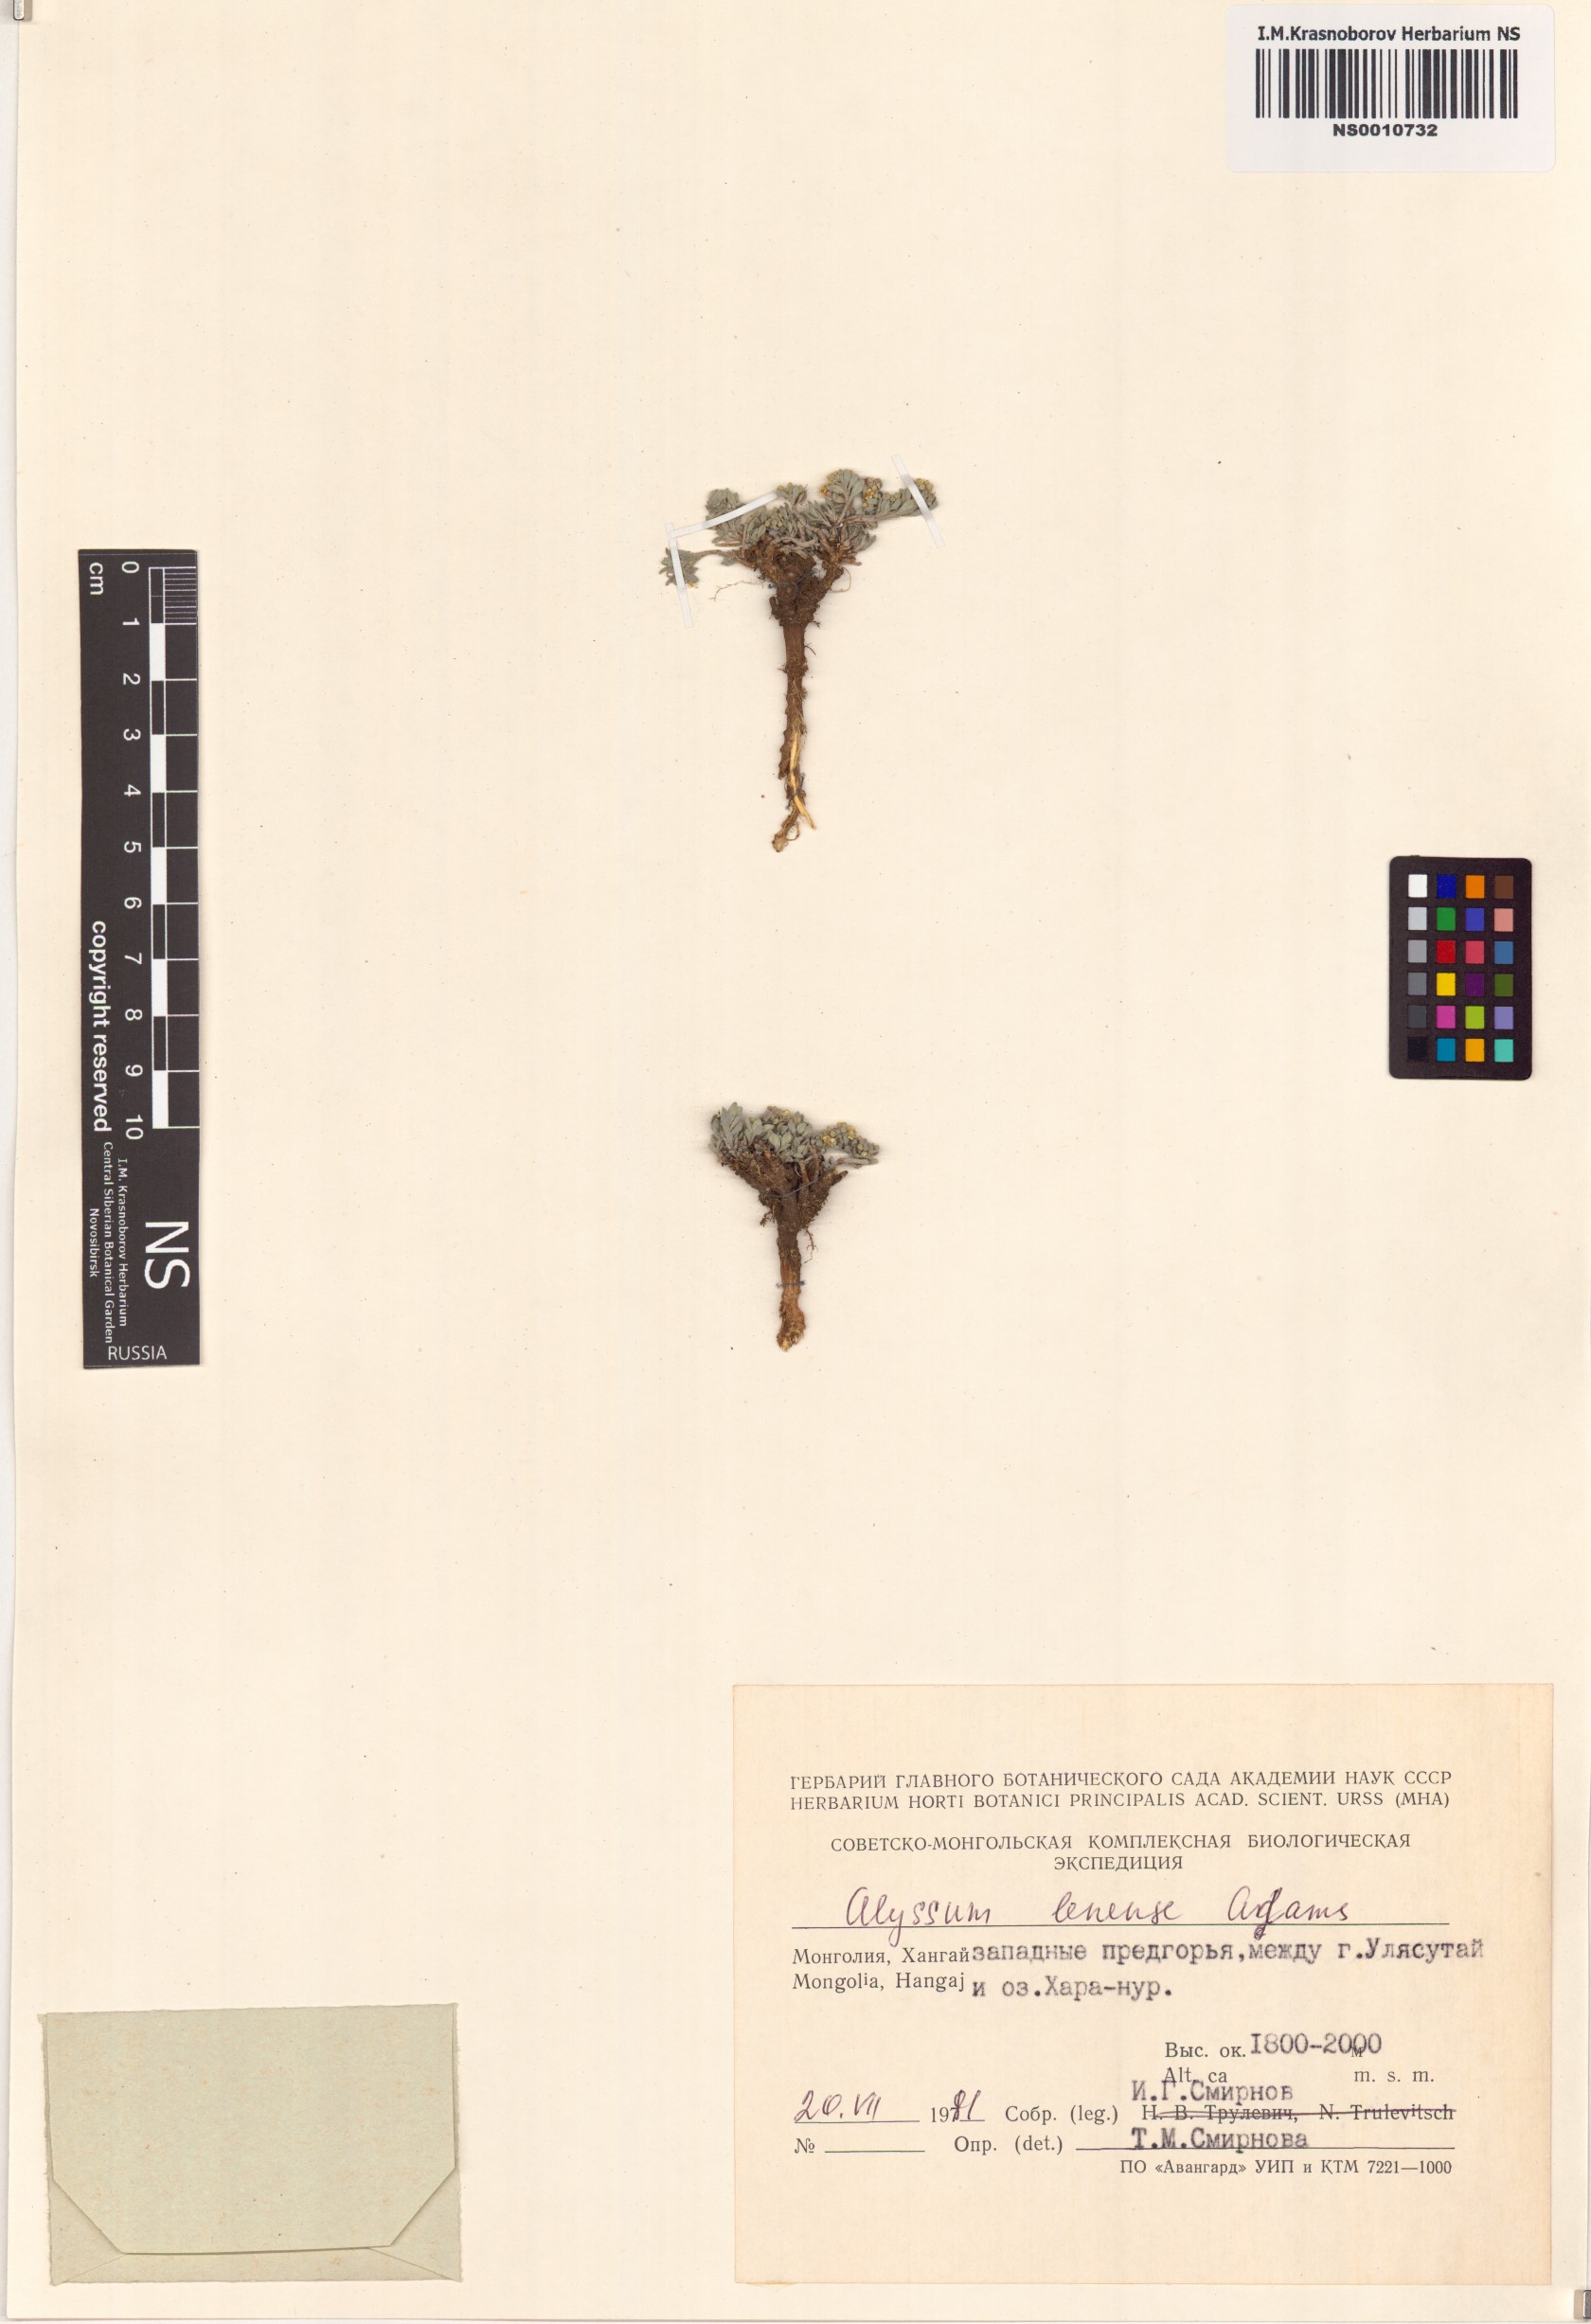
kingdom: Plantae
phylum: Tracheophyta
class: Magnoliopsida
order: Brassicales
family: Brassicaceae
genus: Alyssum
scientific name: Alyssum lenense
